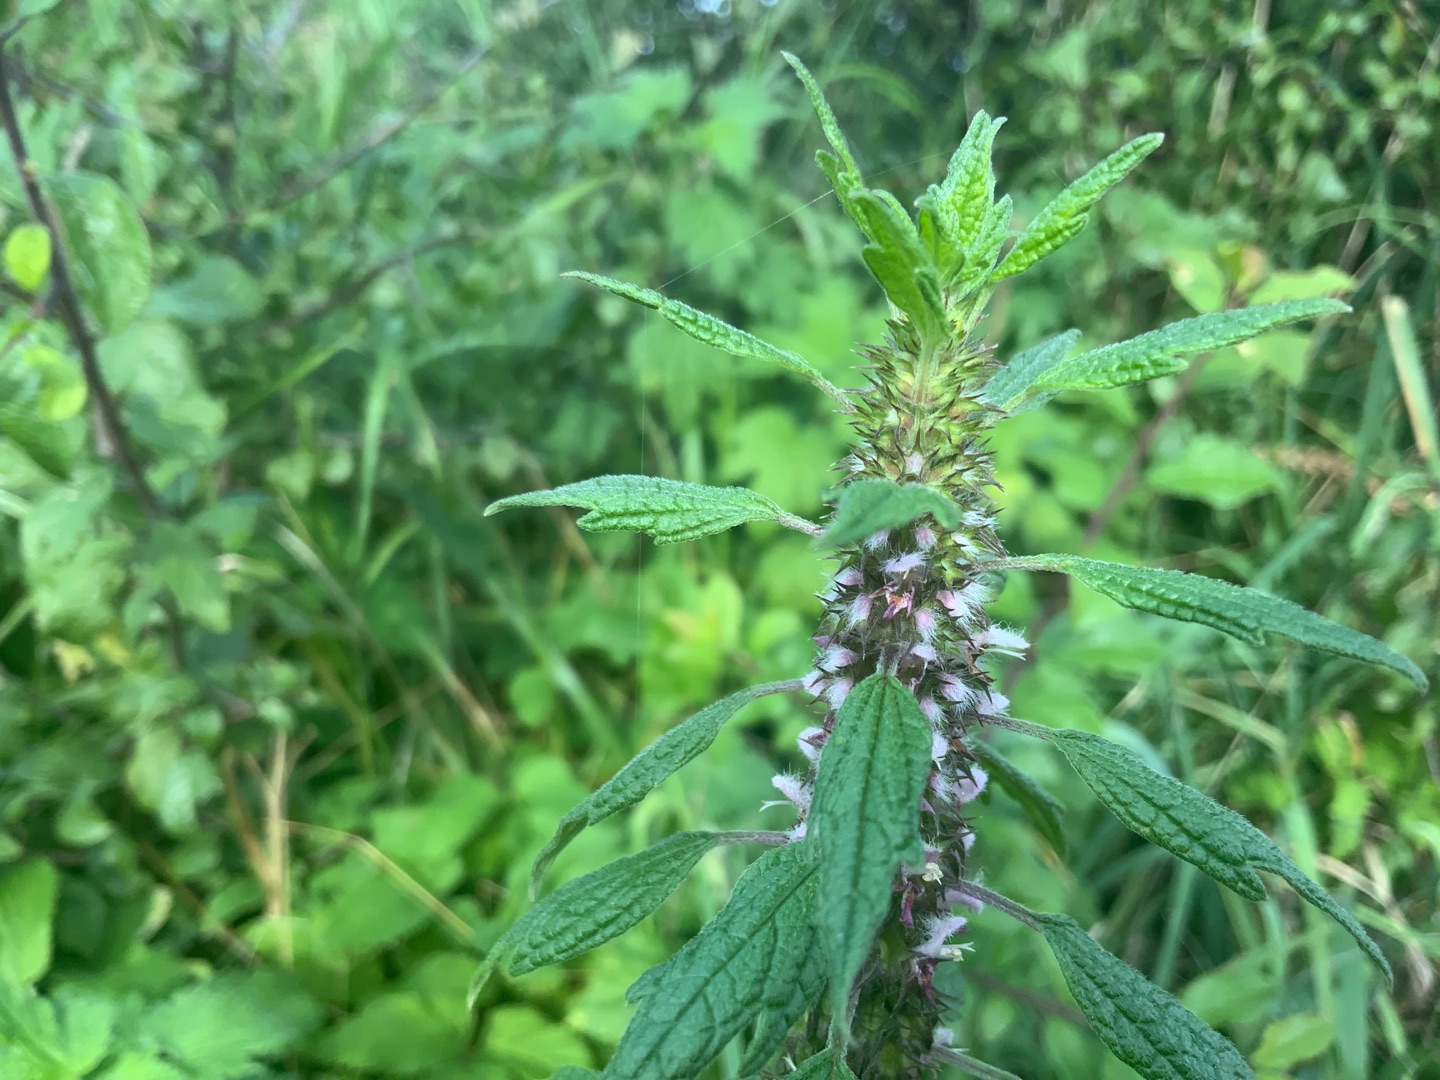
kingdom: Plantae
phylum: Tracheophyta
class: Magnoliopsida
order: Lamiales
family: Lamiaceae
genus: Leonurus
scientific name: Leonurus cardiaca
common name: Hjertespand
